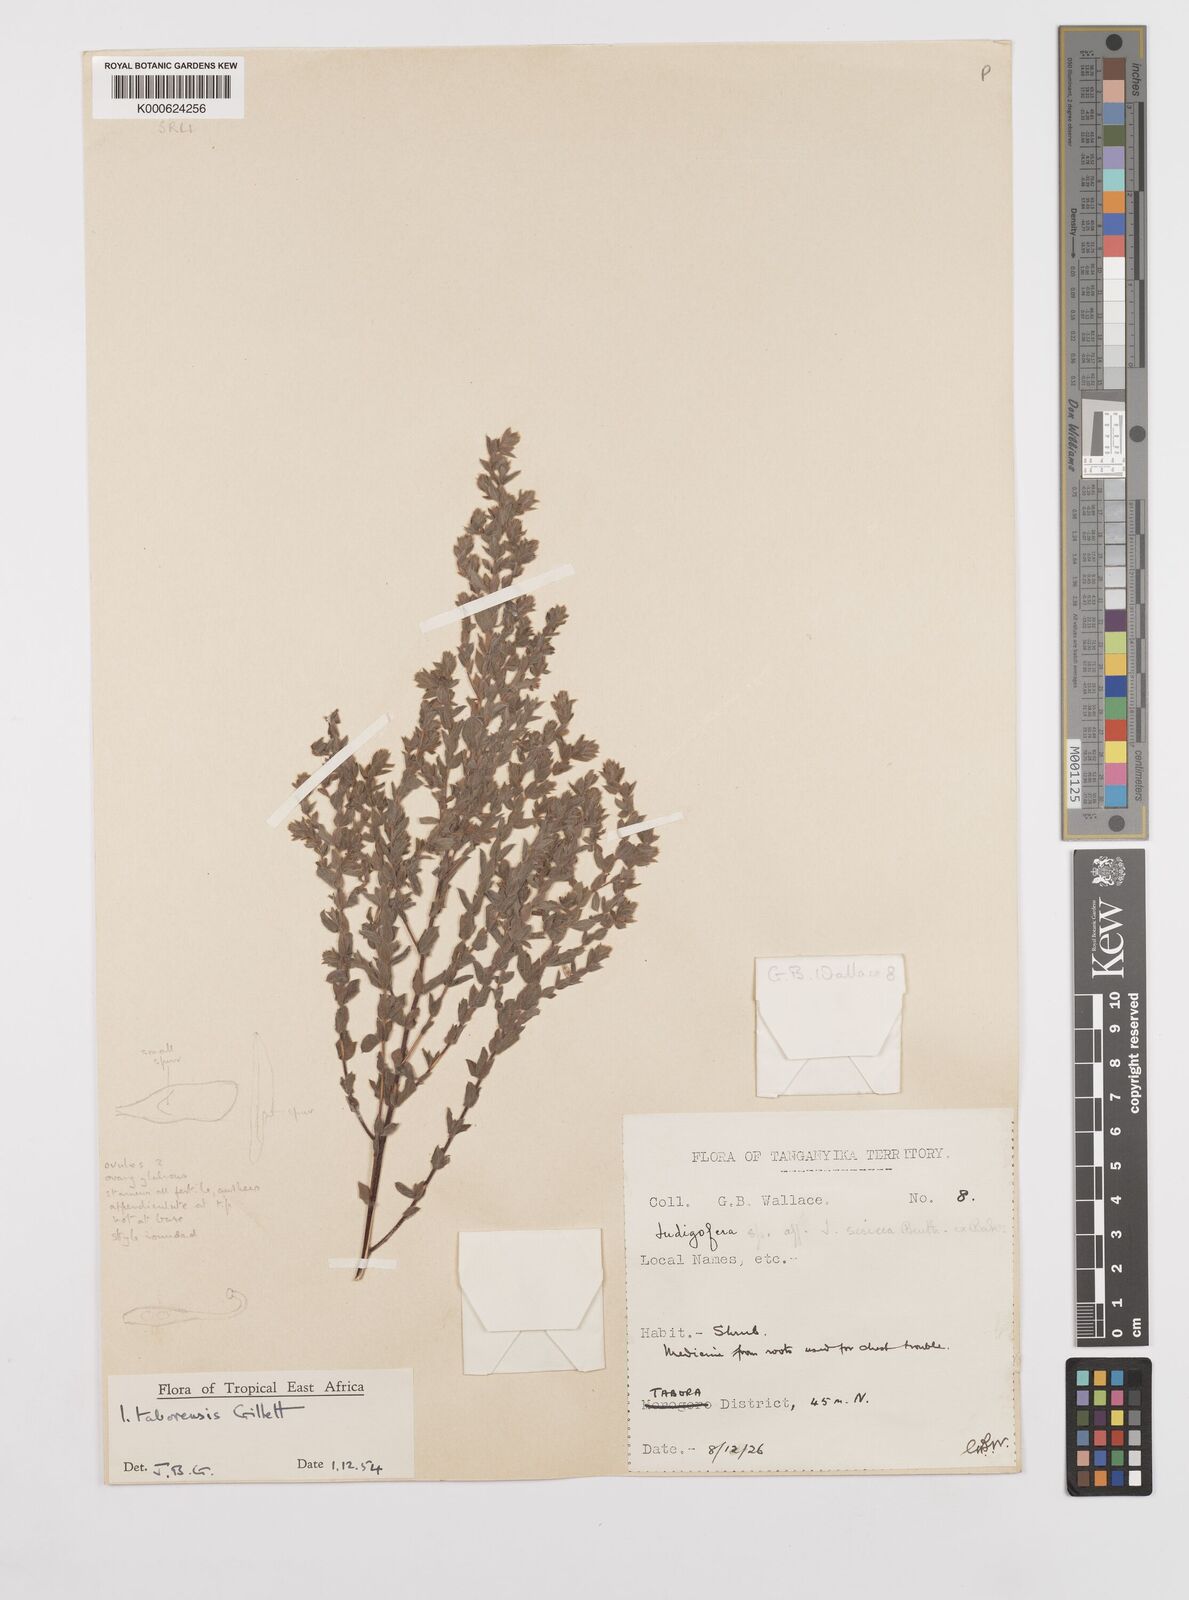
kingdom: Plantae
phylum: Tracheophyta
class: Magnoliopsida
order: Fabales
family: Fabaceae
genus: Indigofera
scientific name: Indigofera taborensis
